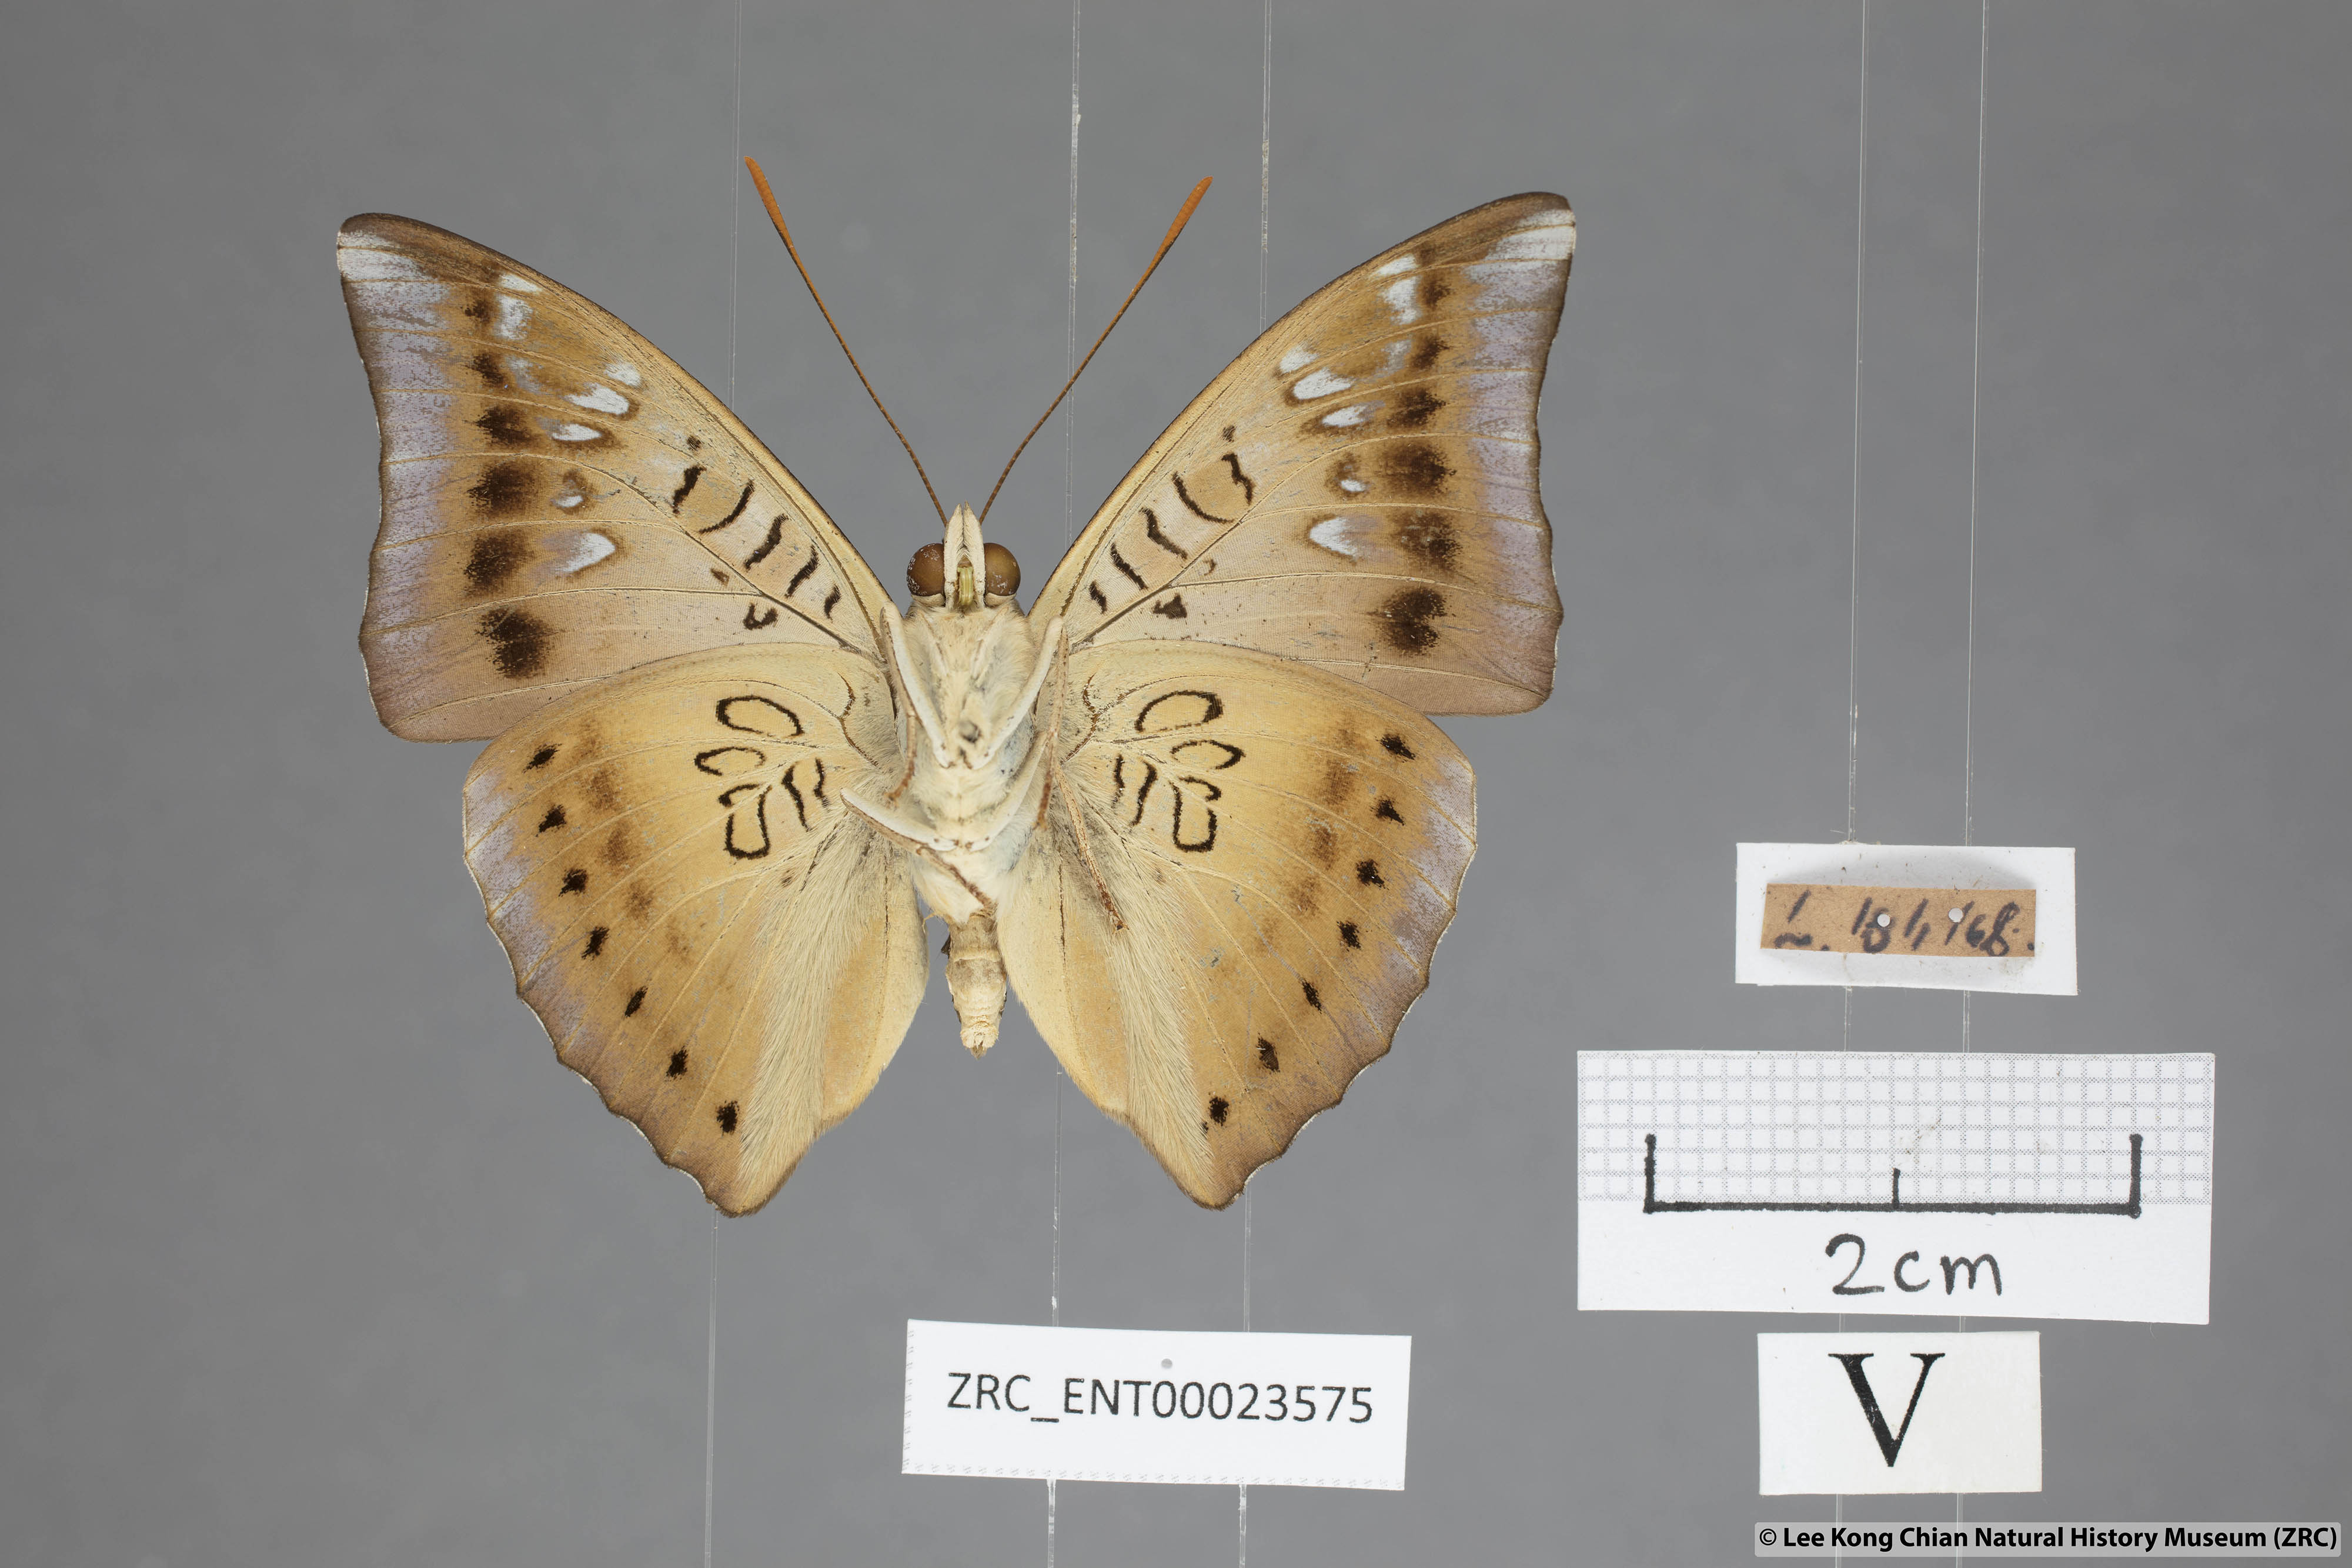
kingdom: Animalia
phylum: Arthropoda
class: Insecta
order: Lepidoptera
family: Nymphalidae
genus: Euthalia
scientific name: Euthalia aconthea
